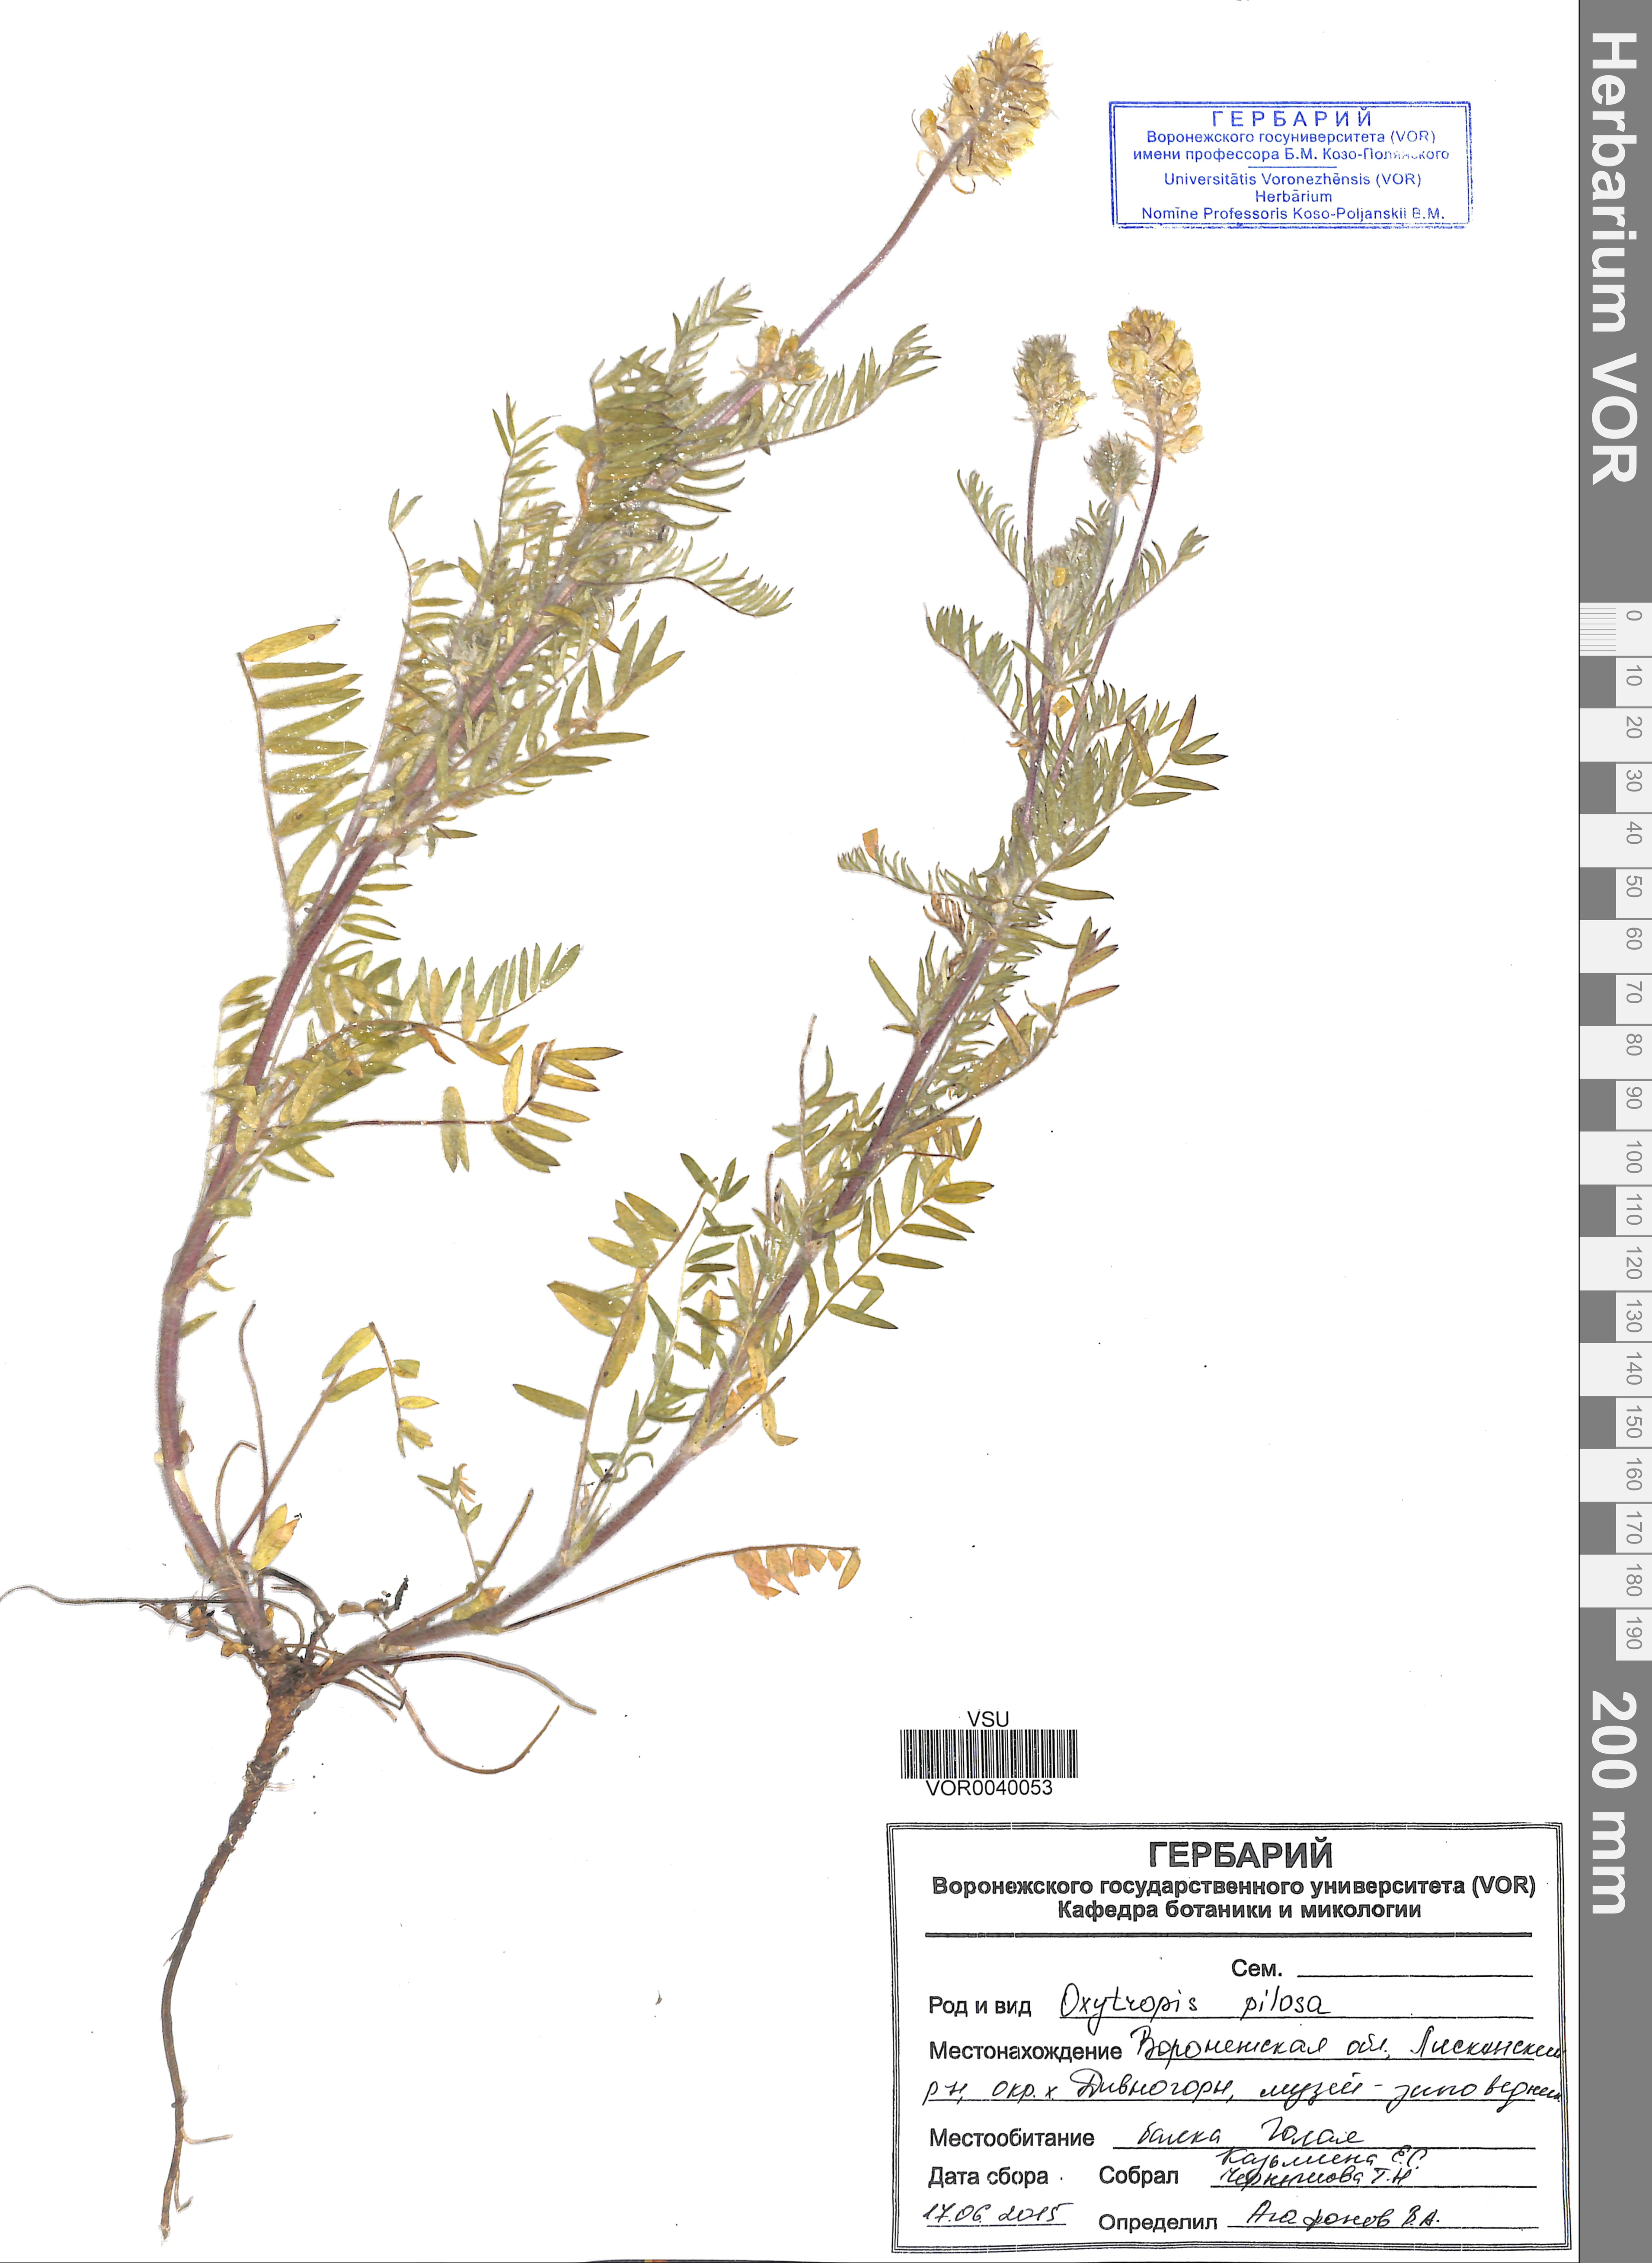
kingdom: Plantae
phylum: Tracheophyta
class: Magnoliopsida
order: Fabales
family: Fabaceae
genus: Oxytropis
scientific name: Oxytropis pilosa
